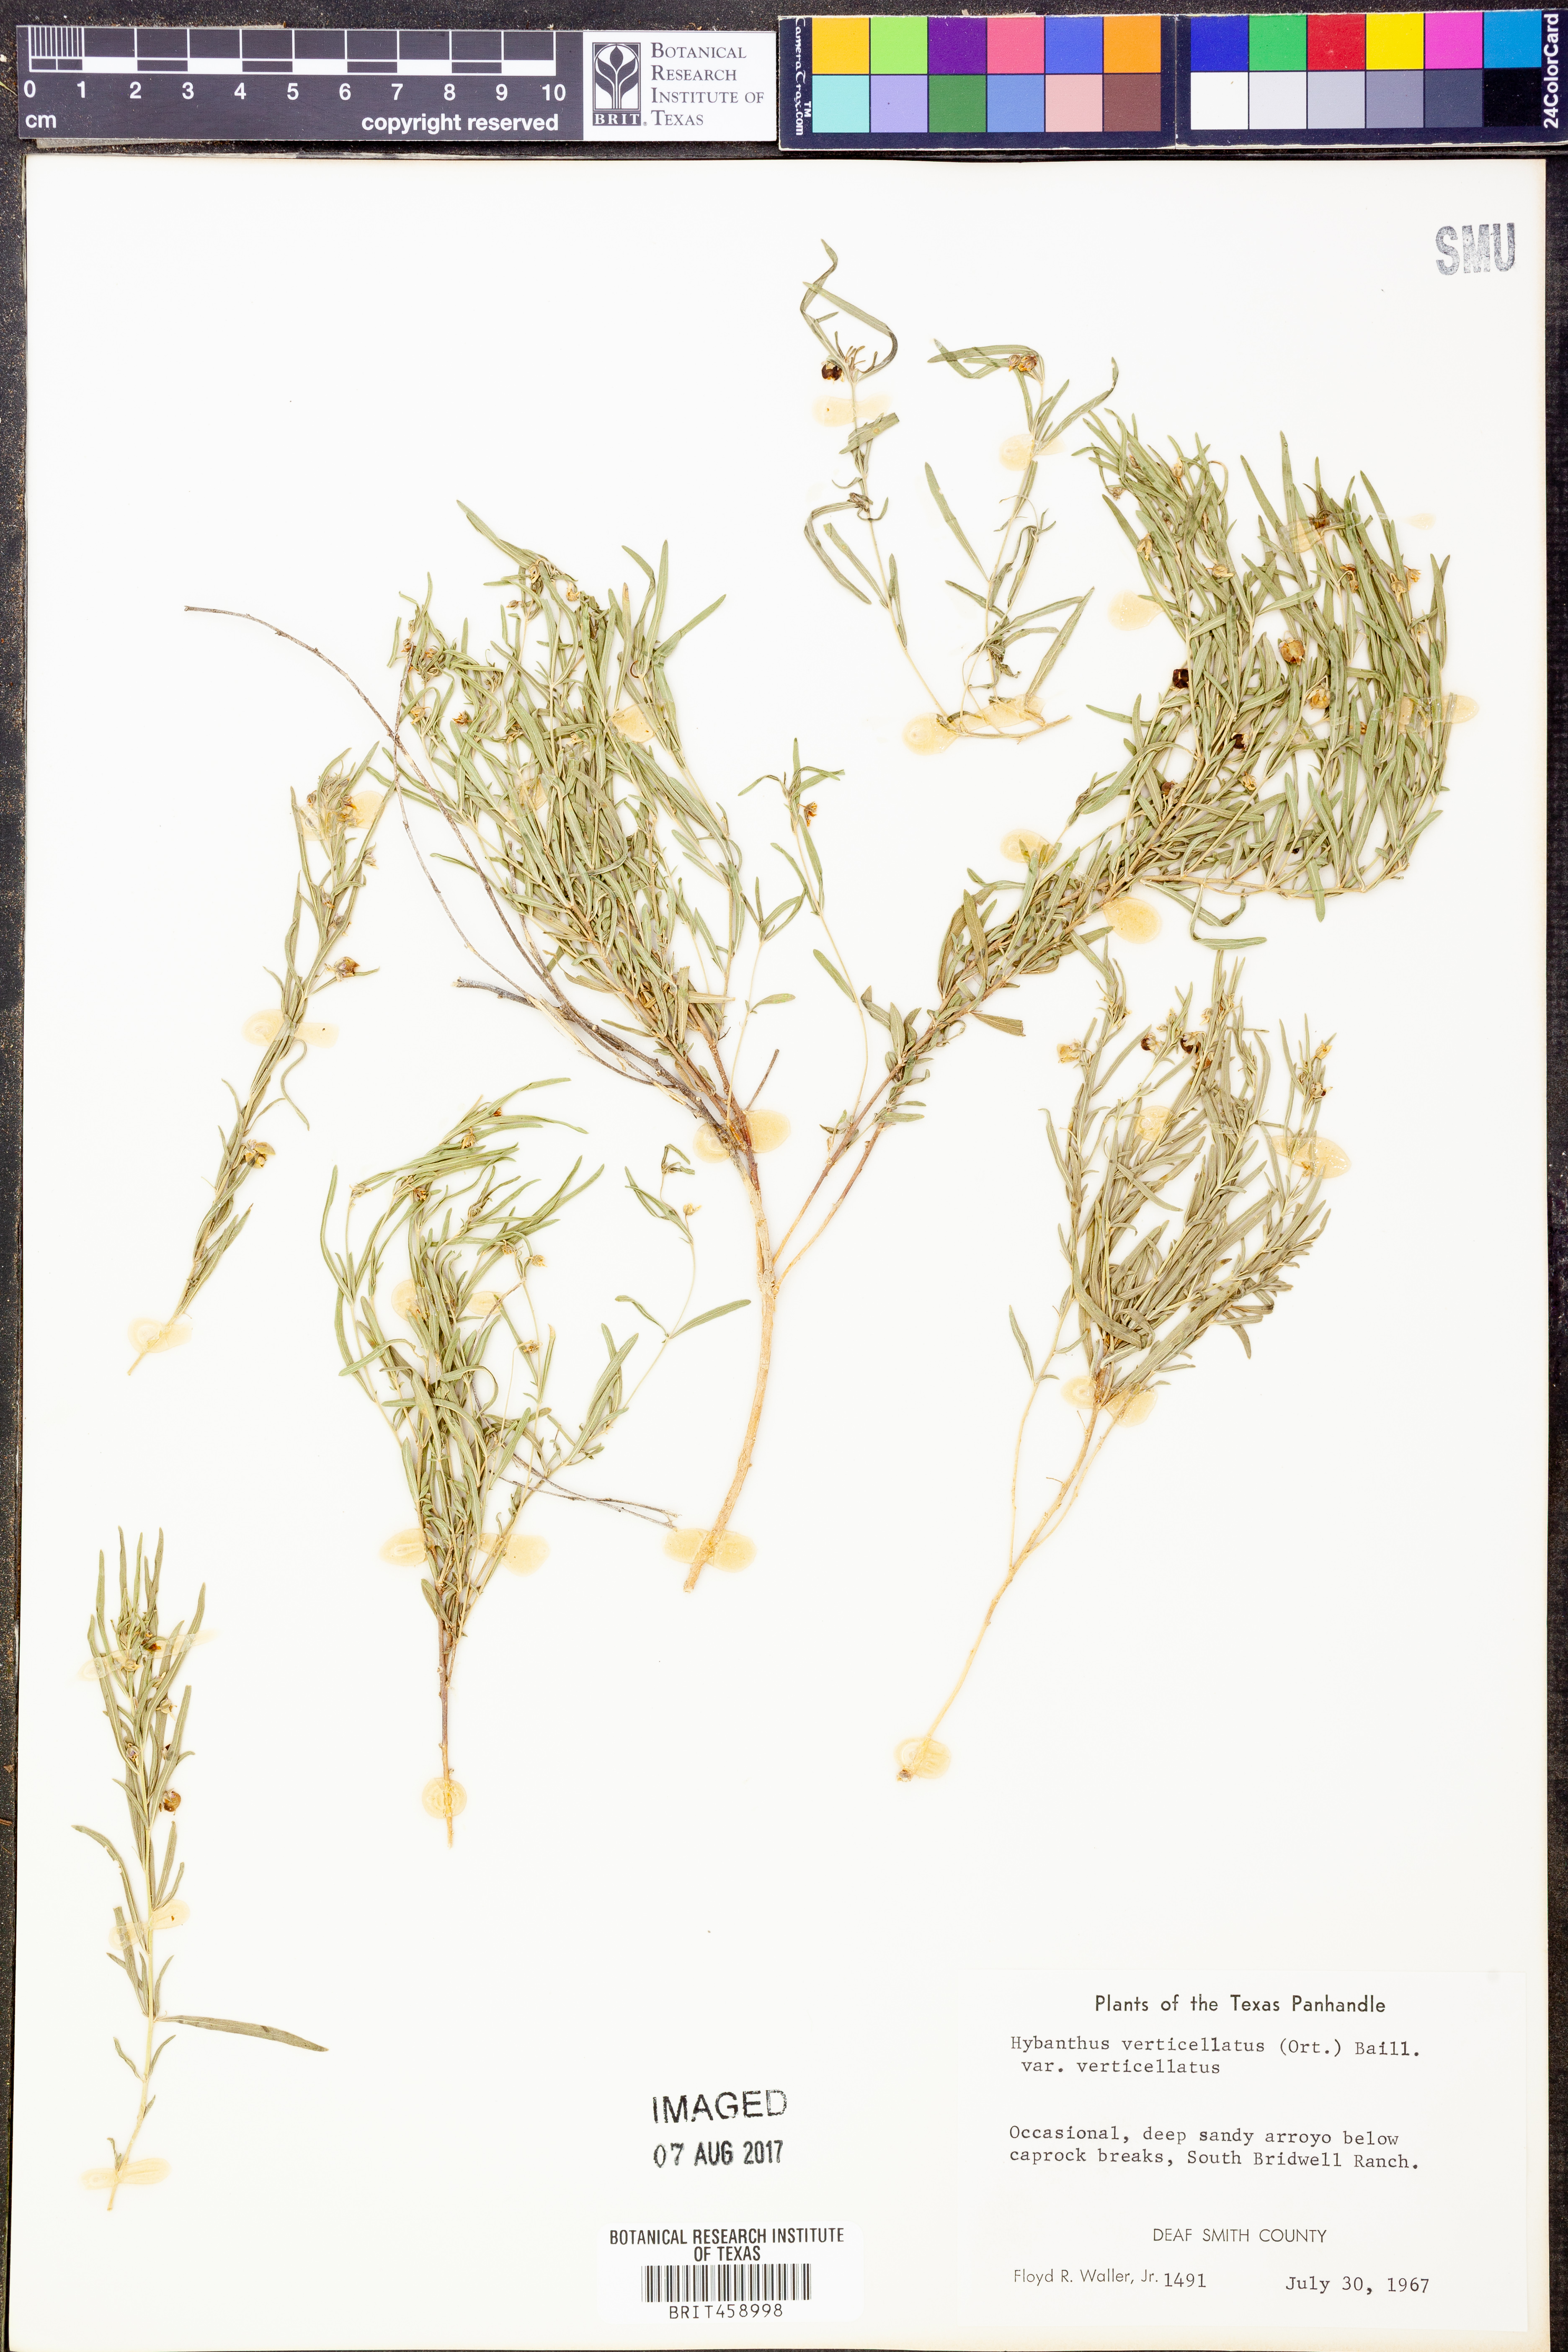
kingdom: Plantae
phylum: Tracheophyta
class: Magnoliopsida
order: Malpighiales
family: Violaceae
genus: Pombalia
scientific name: Pombalia verticillata
